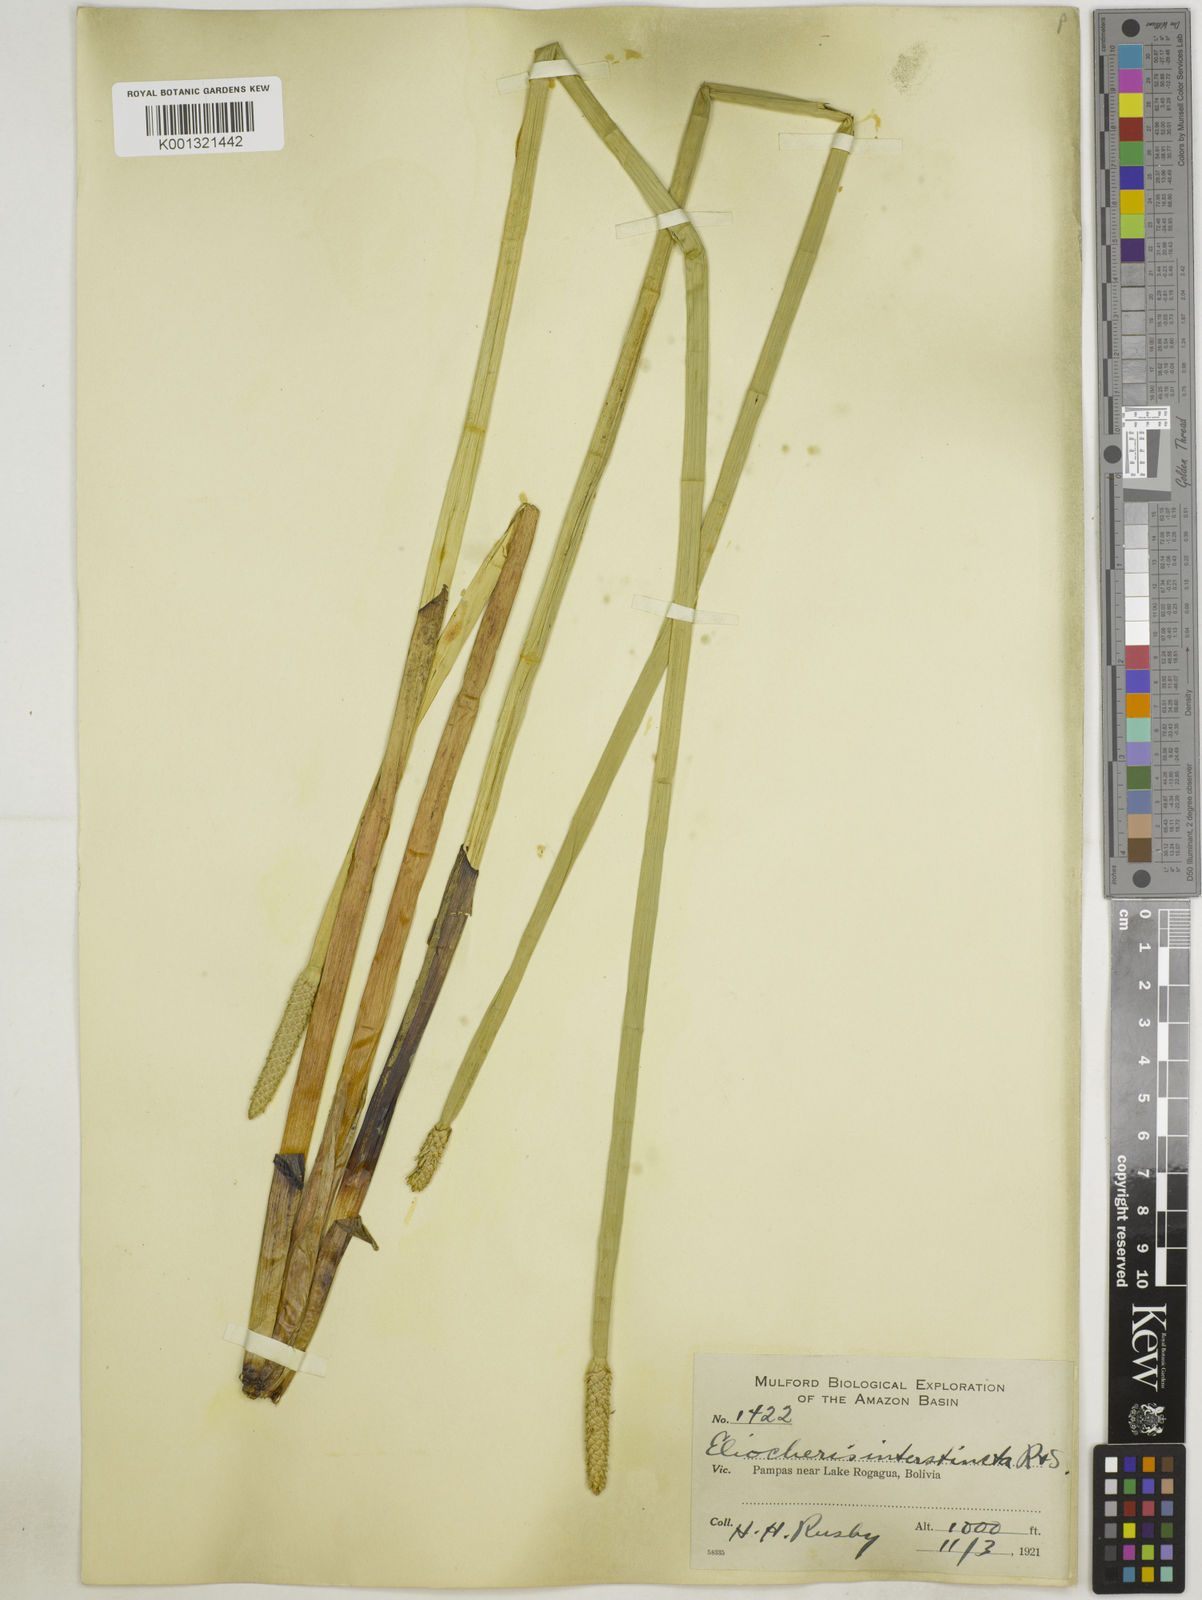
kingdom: Plantae
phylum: Tracheophyta
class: Liliopsida
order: Poales
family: Cyperaceae
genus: Eleocharis
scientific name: Eleocharis interstincta
